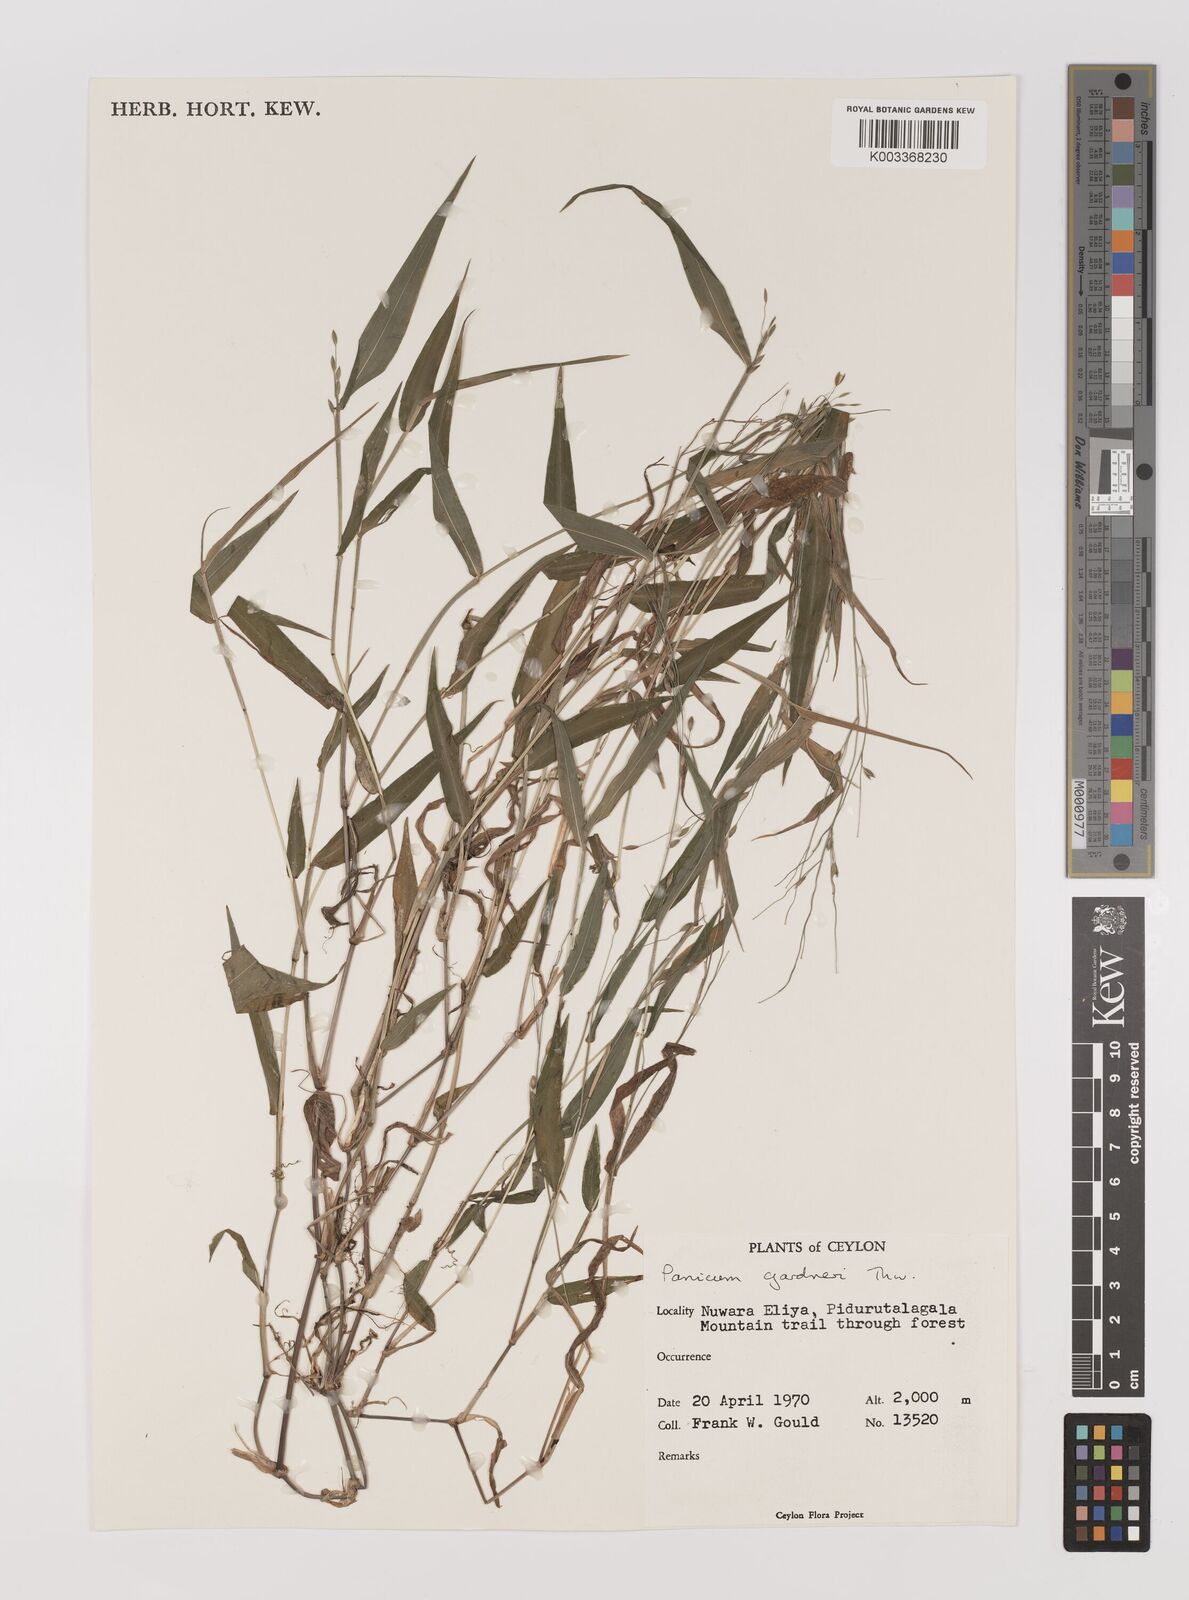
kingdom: Plantae
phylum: Tracheophyta
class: Liliopsida
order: Poales
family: Poaceae
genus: Panicum
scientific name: Panicum gardneri
